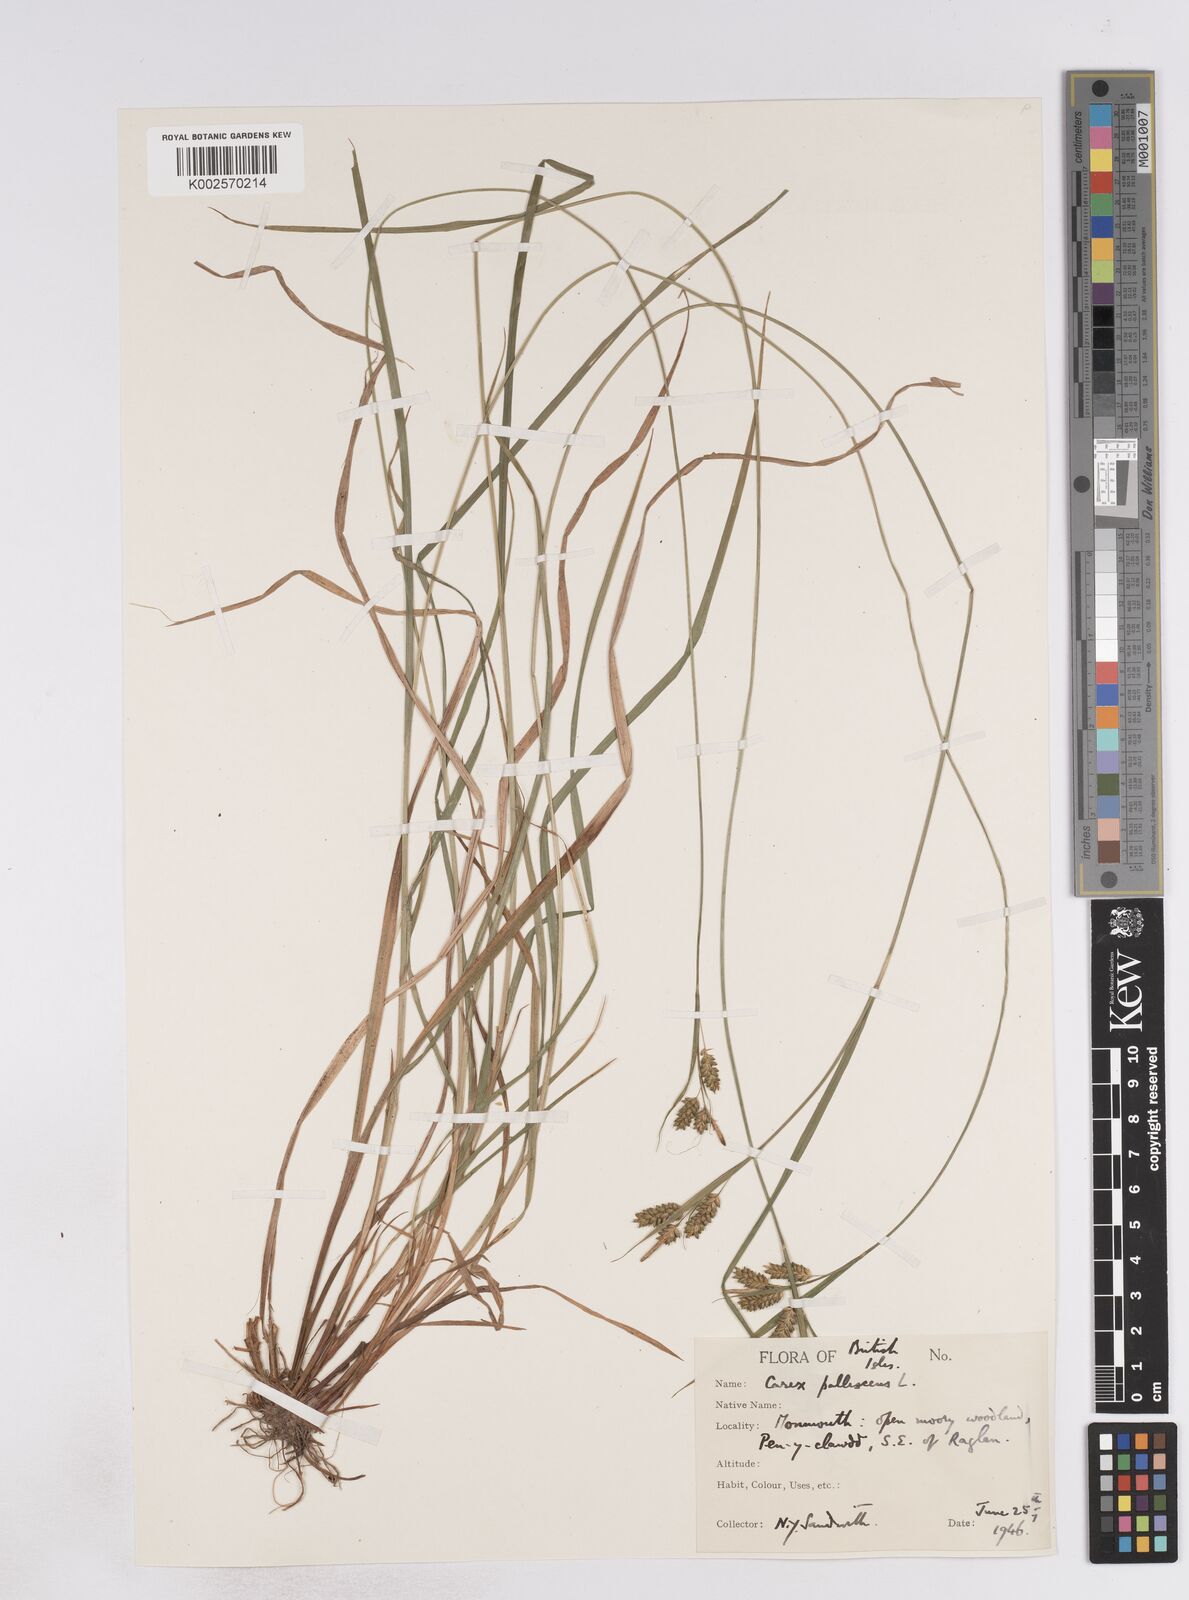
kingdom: Plantae
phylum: Tracheophyta
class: Liliopsida
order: Poales
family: Cyperaceae
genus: Carex
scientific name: Carex pallescens
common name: Pale sedge
